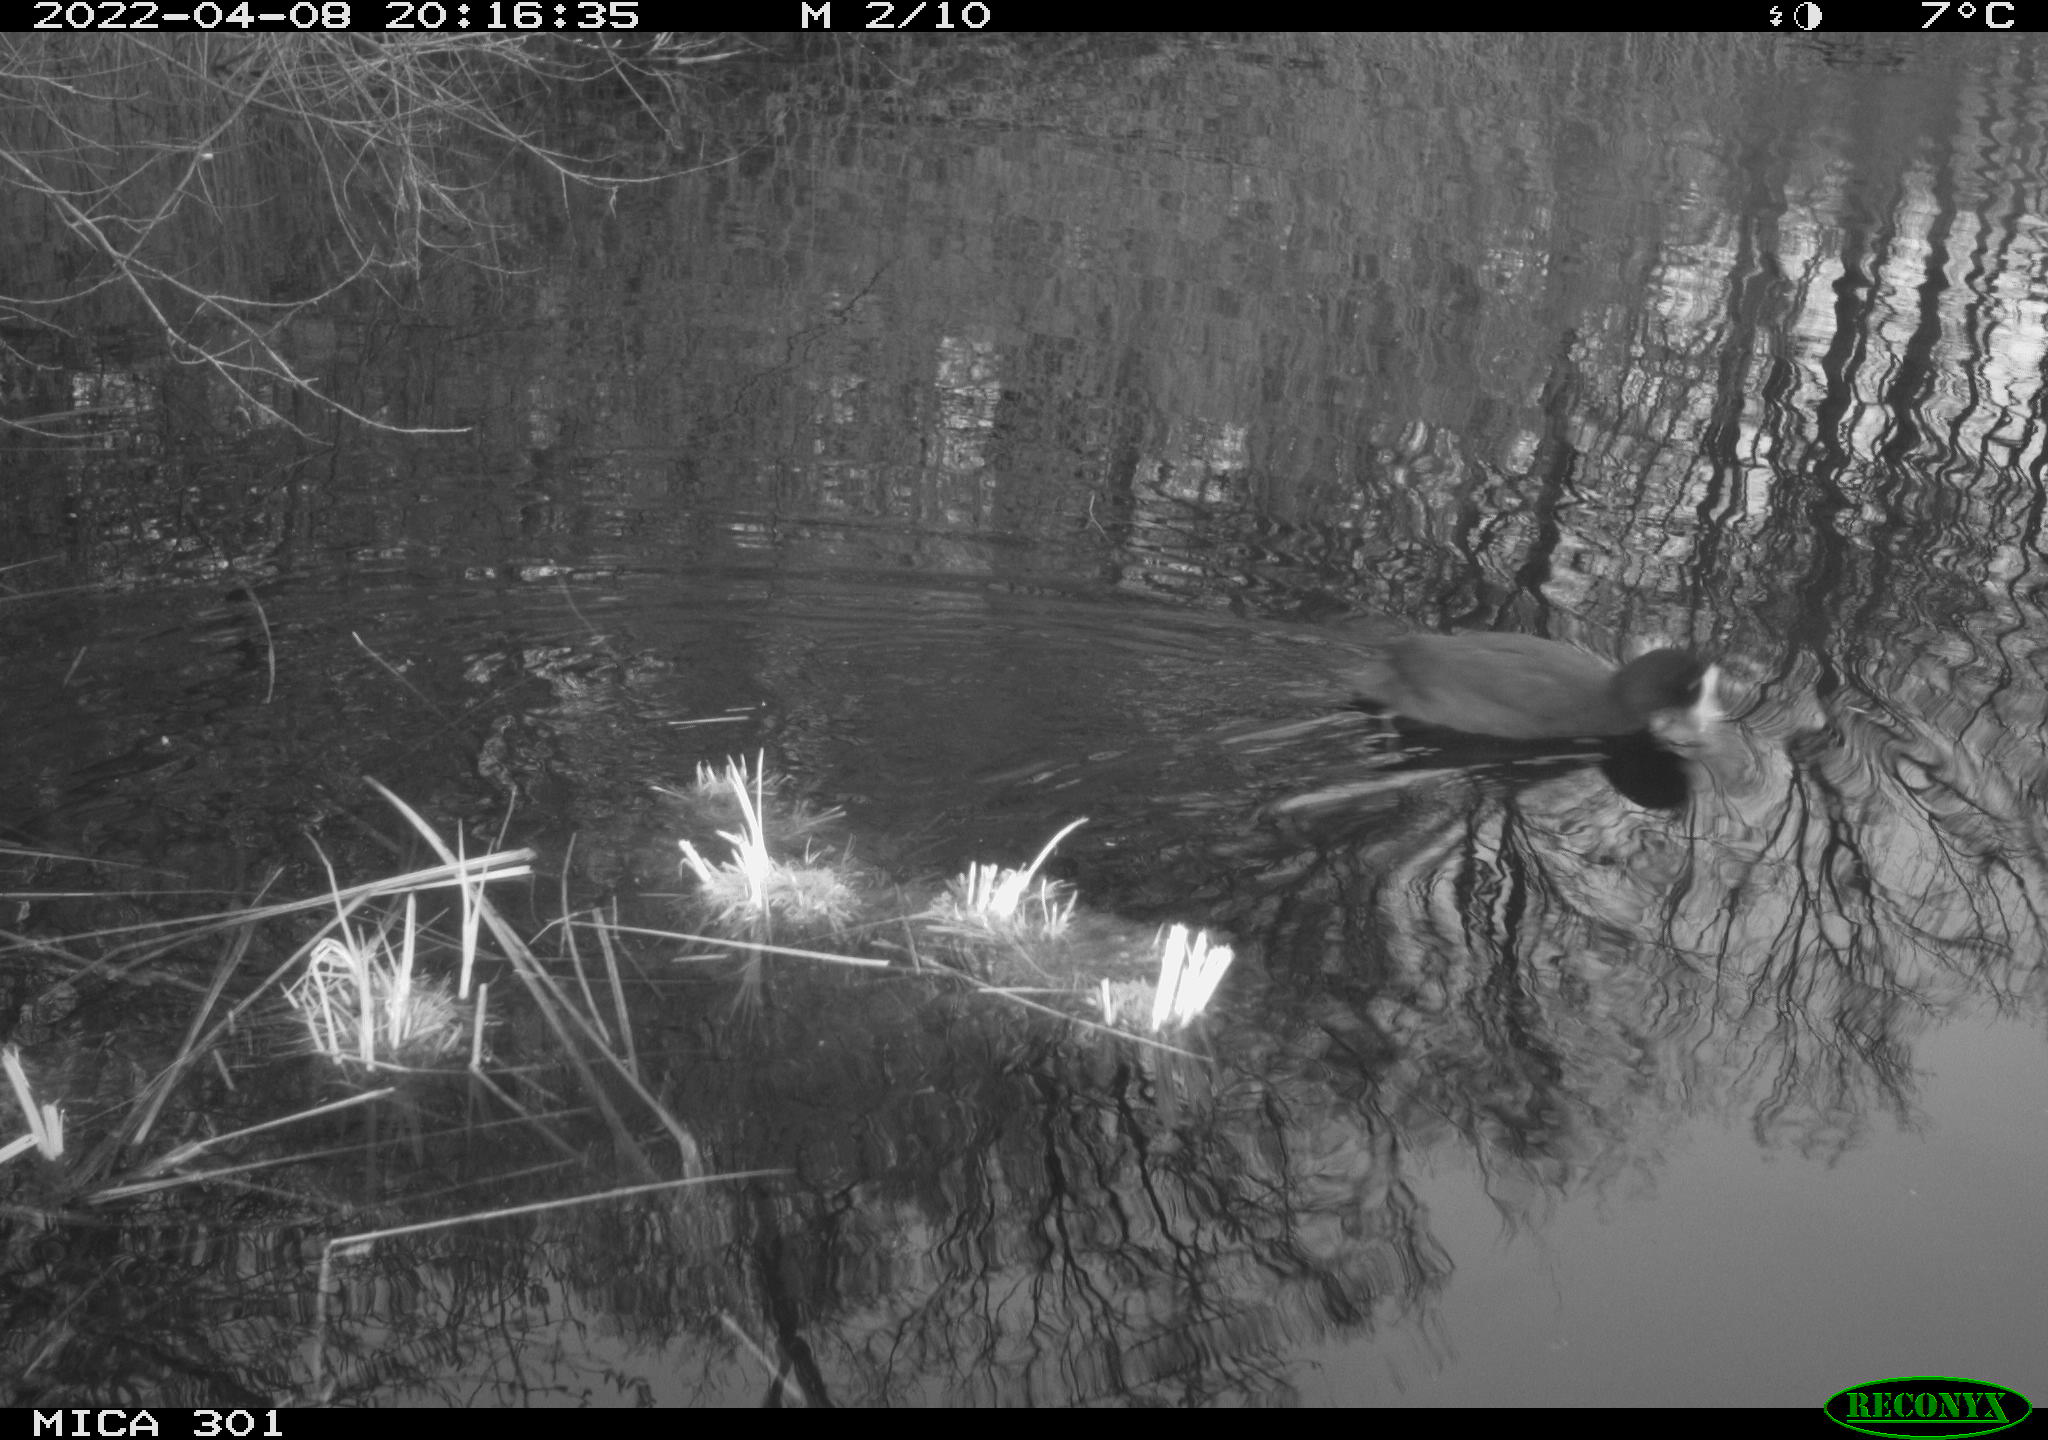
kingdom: Animalia
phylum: Chordata
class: Aves
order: Gruiformes
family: Rallidae
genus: Fulica
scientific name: Fulica atra
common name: Eurasian coot
